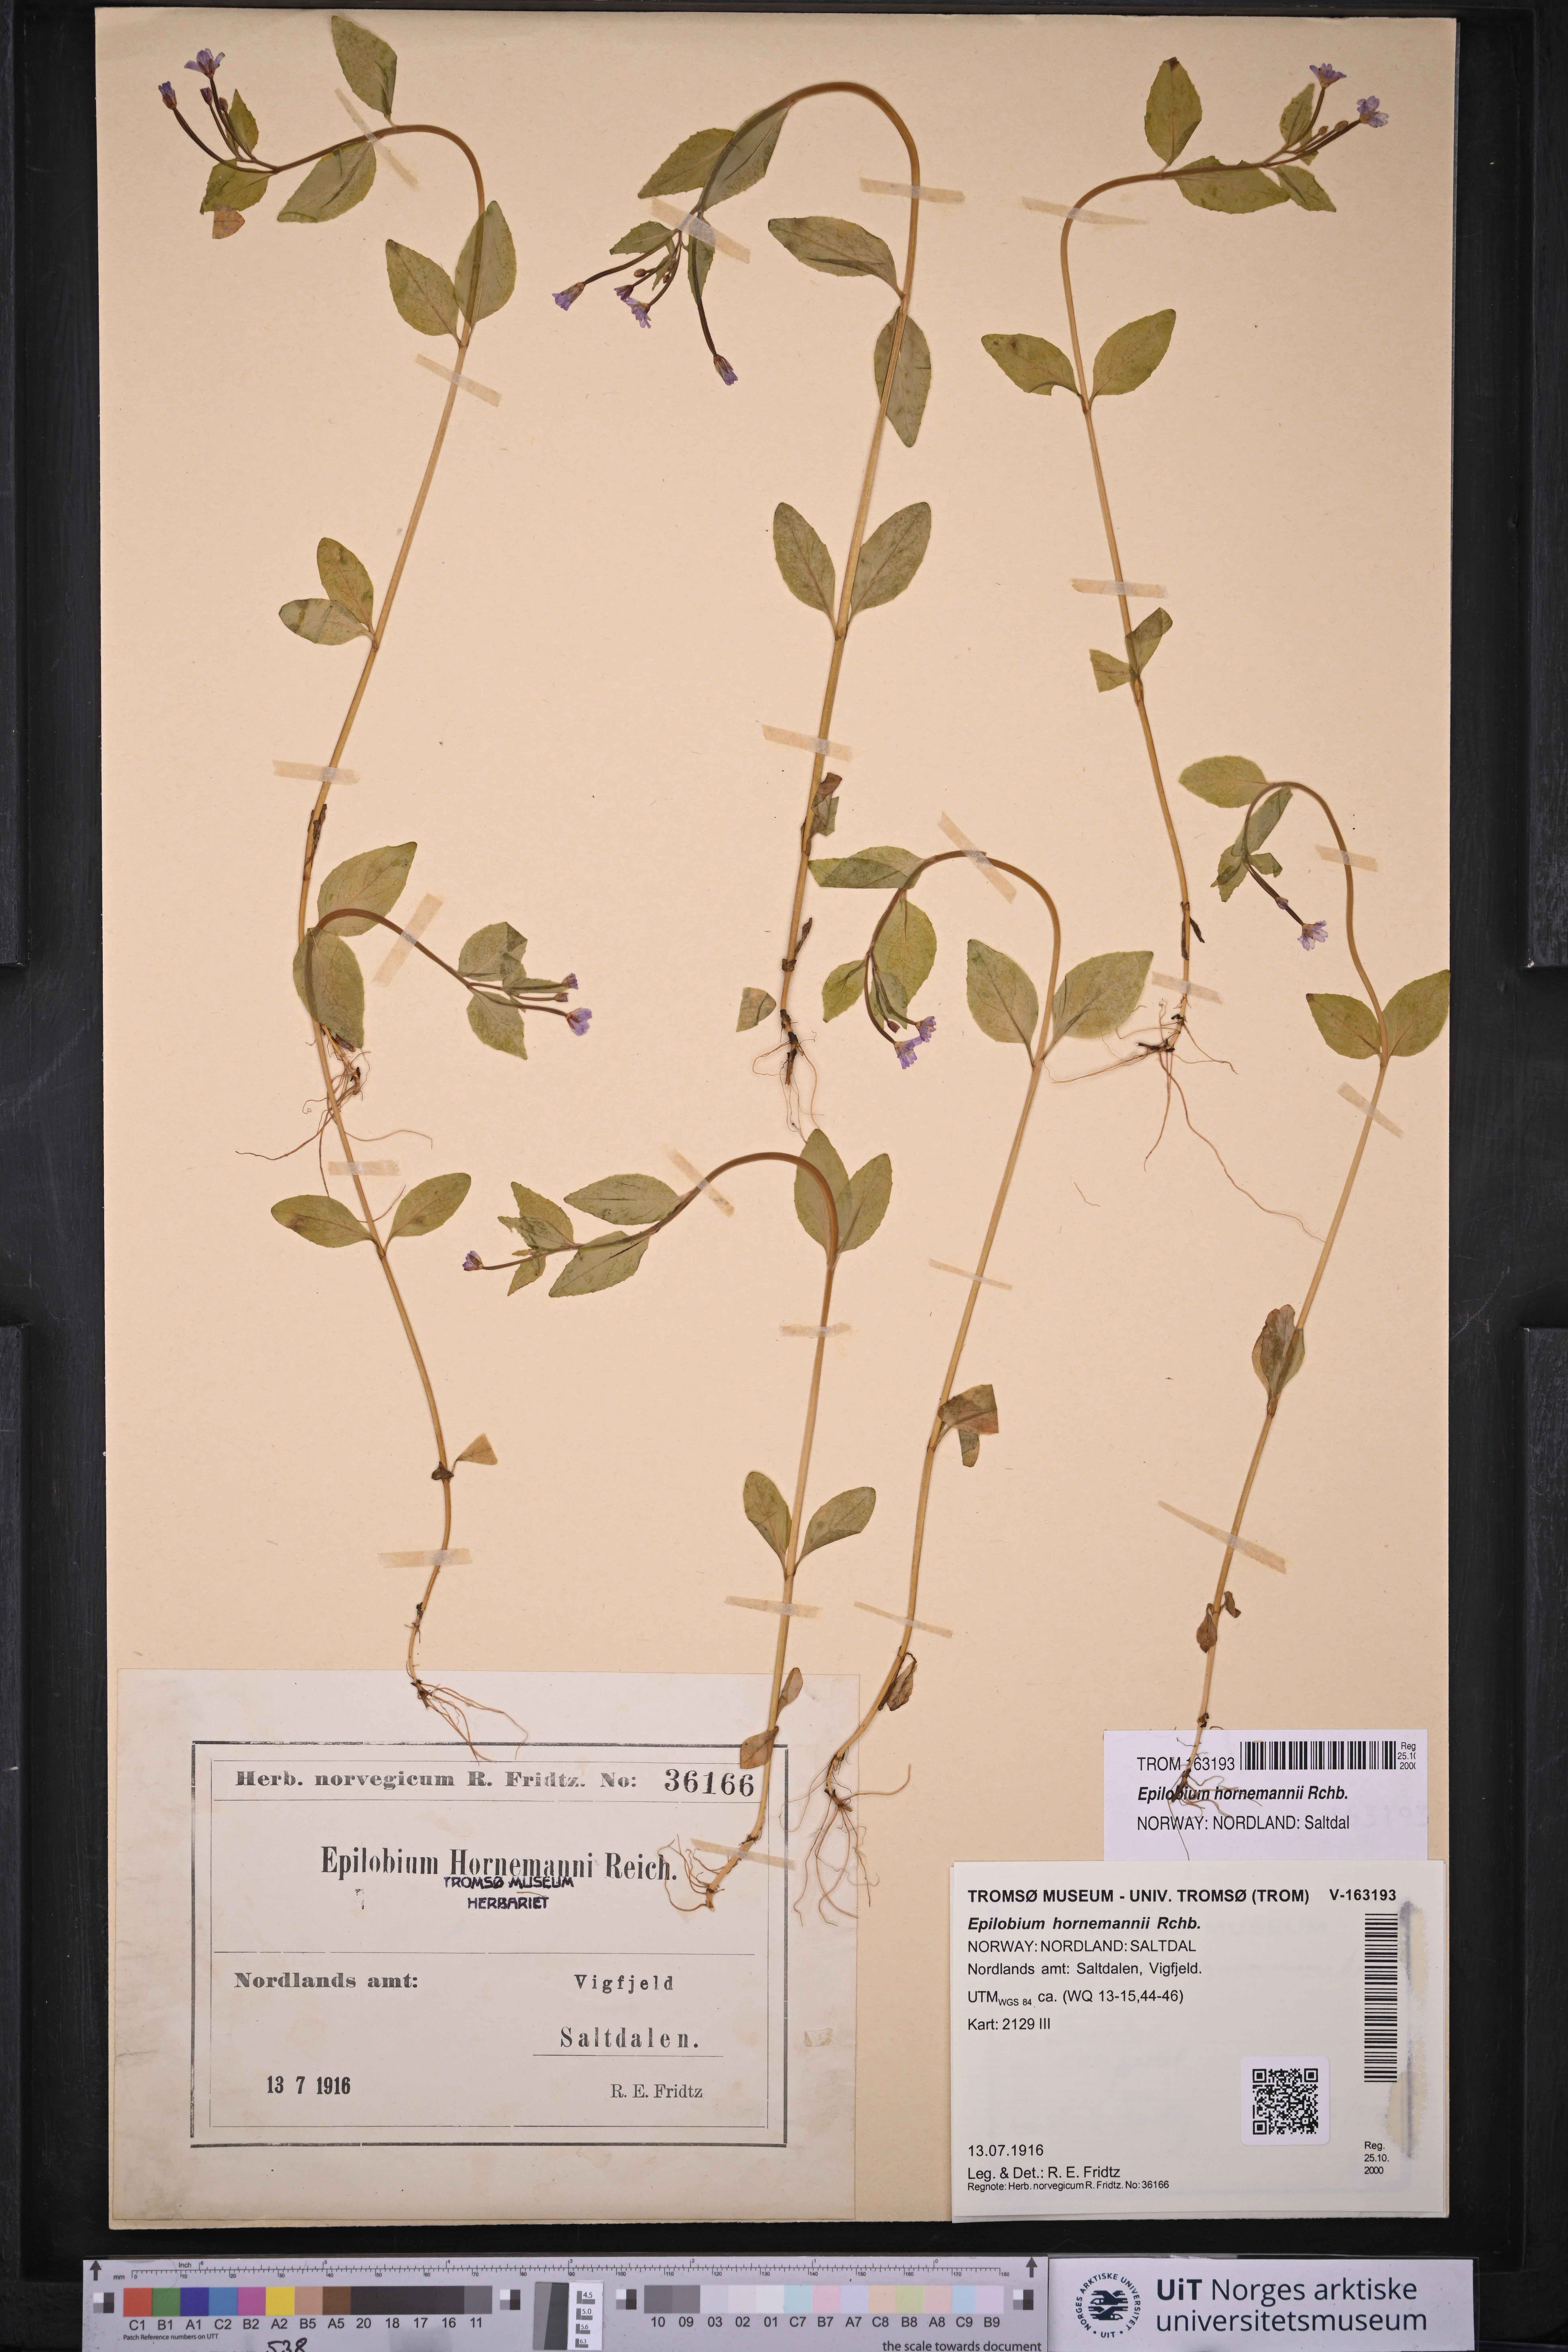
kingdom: Plantae
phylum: Tracheophyta
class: Magnoliopsida
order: Myrtales
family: Onagraceae
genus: Epilobium
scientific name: Epilobium hornemannii
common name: Hornemann's willowherb
